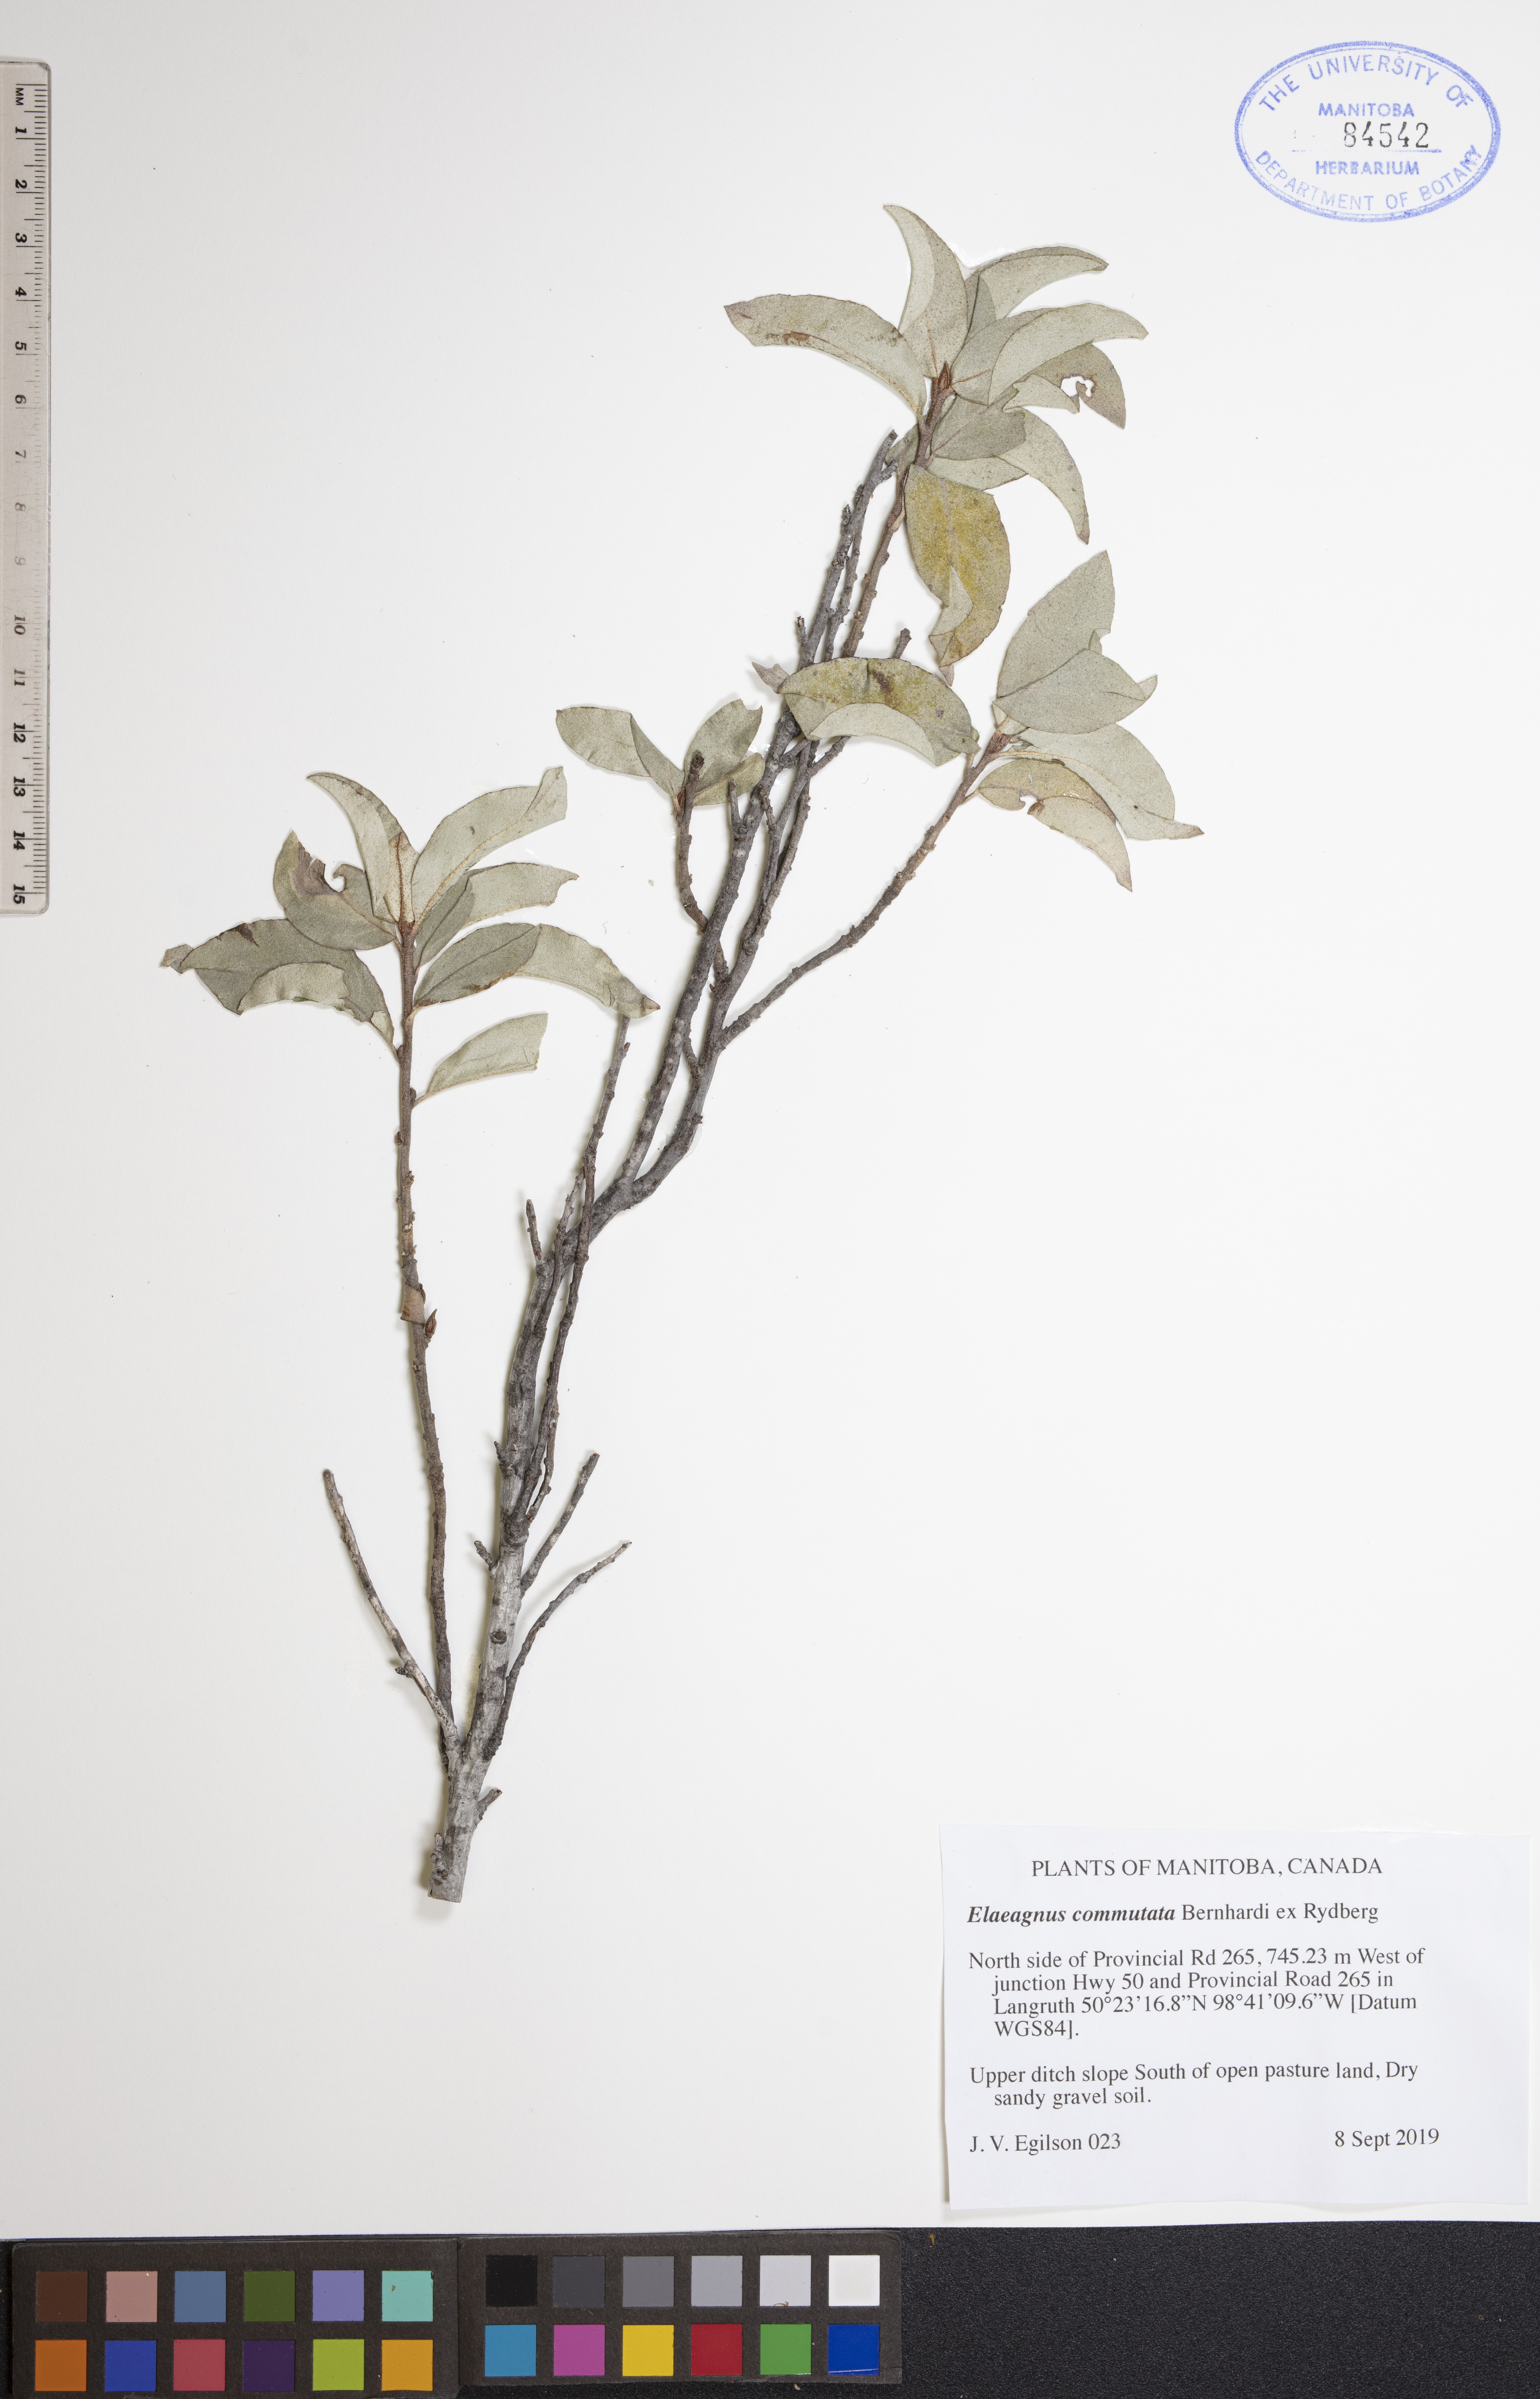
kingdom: Plantae
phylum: Tracheophyta
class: Magnoliopsida
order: Rosales
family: Elaeagnaceae
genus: Elaeagnus
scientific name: Elaeagnus commutata
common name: Silverberry
